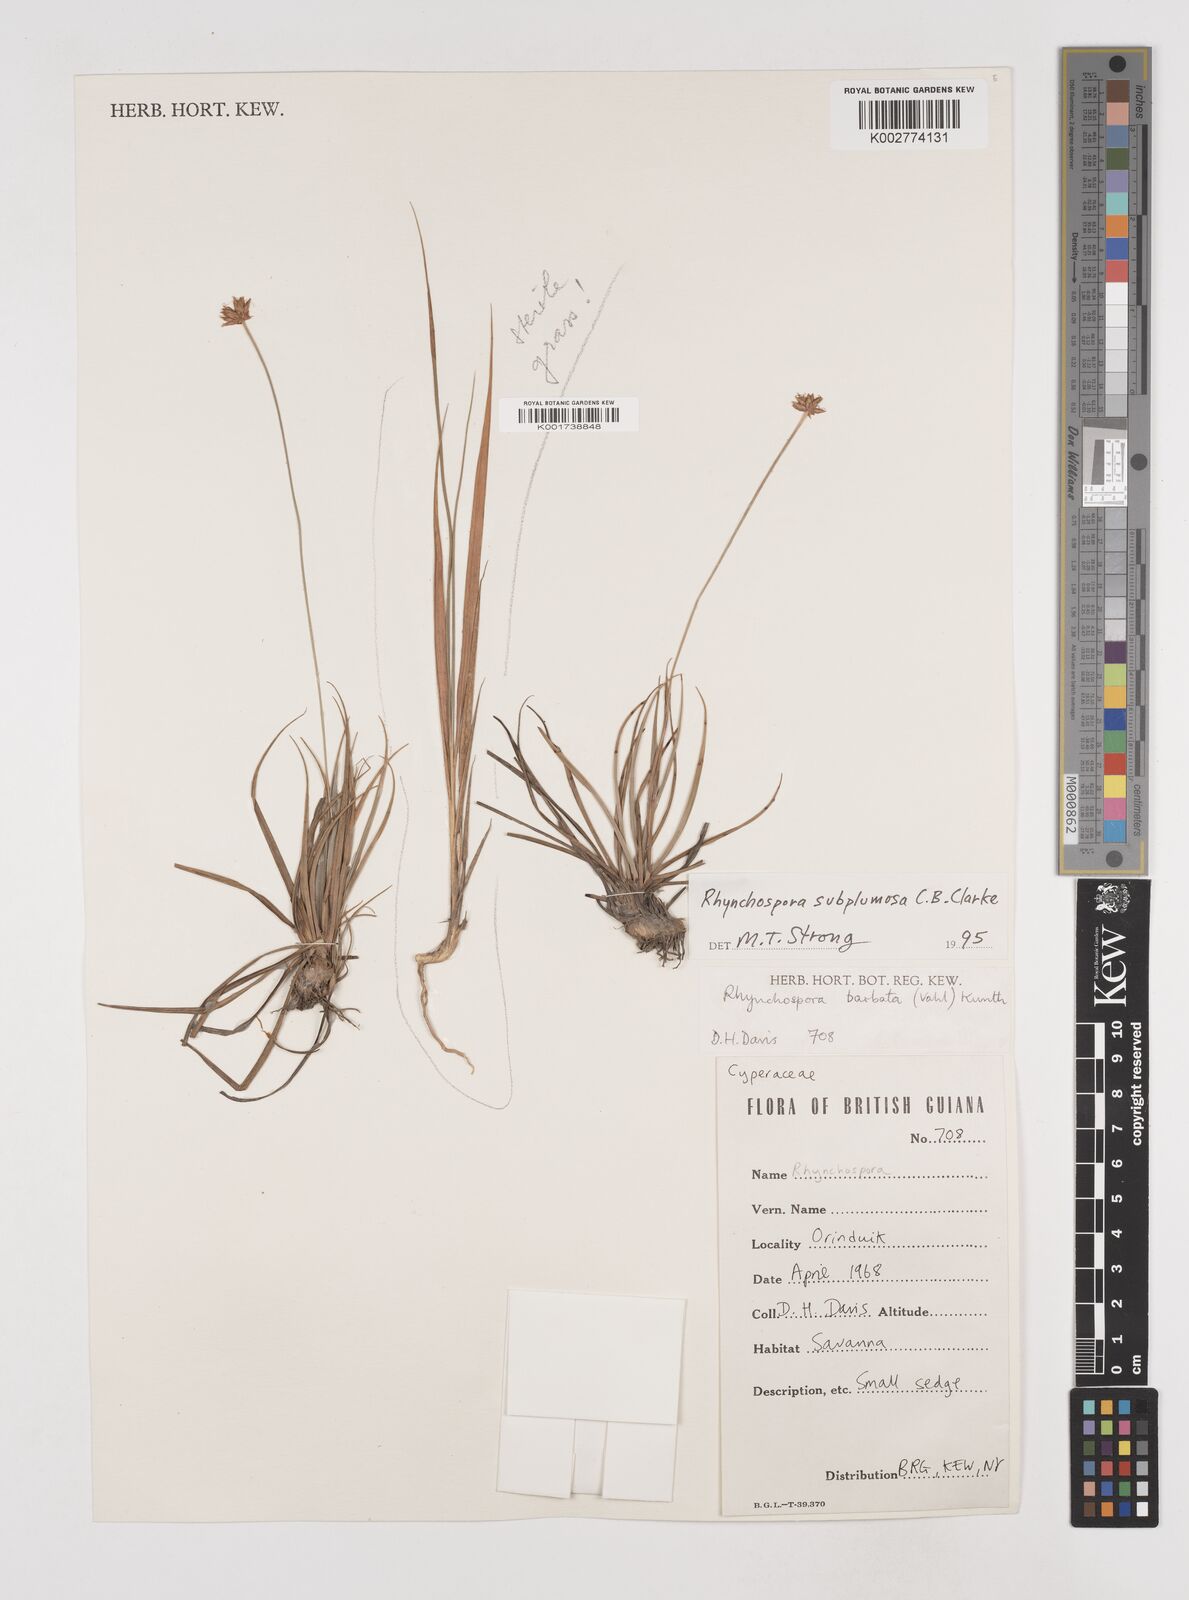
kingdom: Plantae
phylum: Tracheophyta
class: Liliopsida
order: Poales
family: Cyperaceae
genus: Rhynchospora
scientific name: Rhynchospora subplumosa
